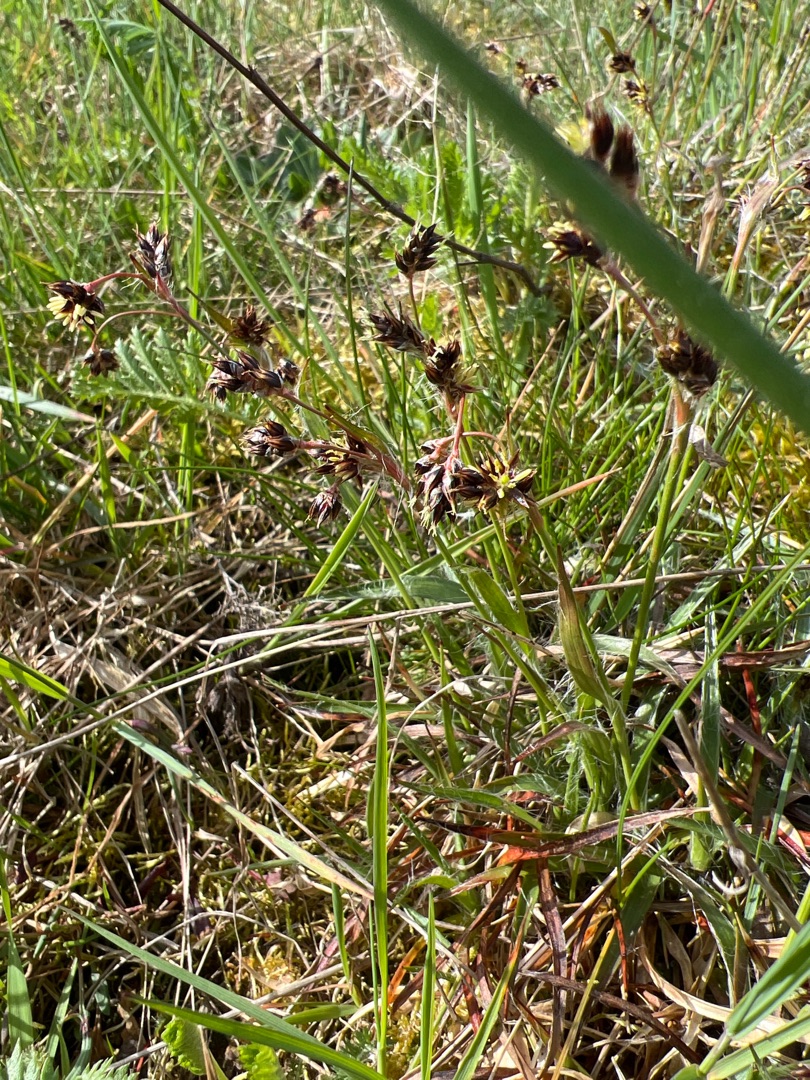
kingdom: Plantae
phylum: Tracheophyta
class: Liliopsida
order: Poales
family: Juncaceae
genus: Luzula
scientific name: Luzula campestris
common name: Mark-frytle
